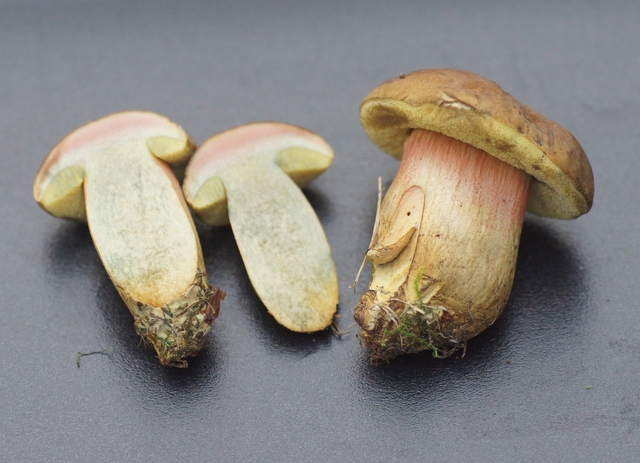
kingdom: Fungi
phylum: Basidiomycota
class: Agaricomycetes
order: Boletales
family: Boletaceae
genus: Hortiboletus
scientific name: Hortiboletus bubalinus
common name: aurora-rørhat
